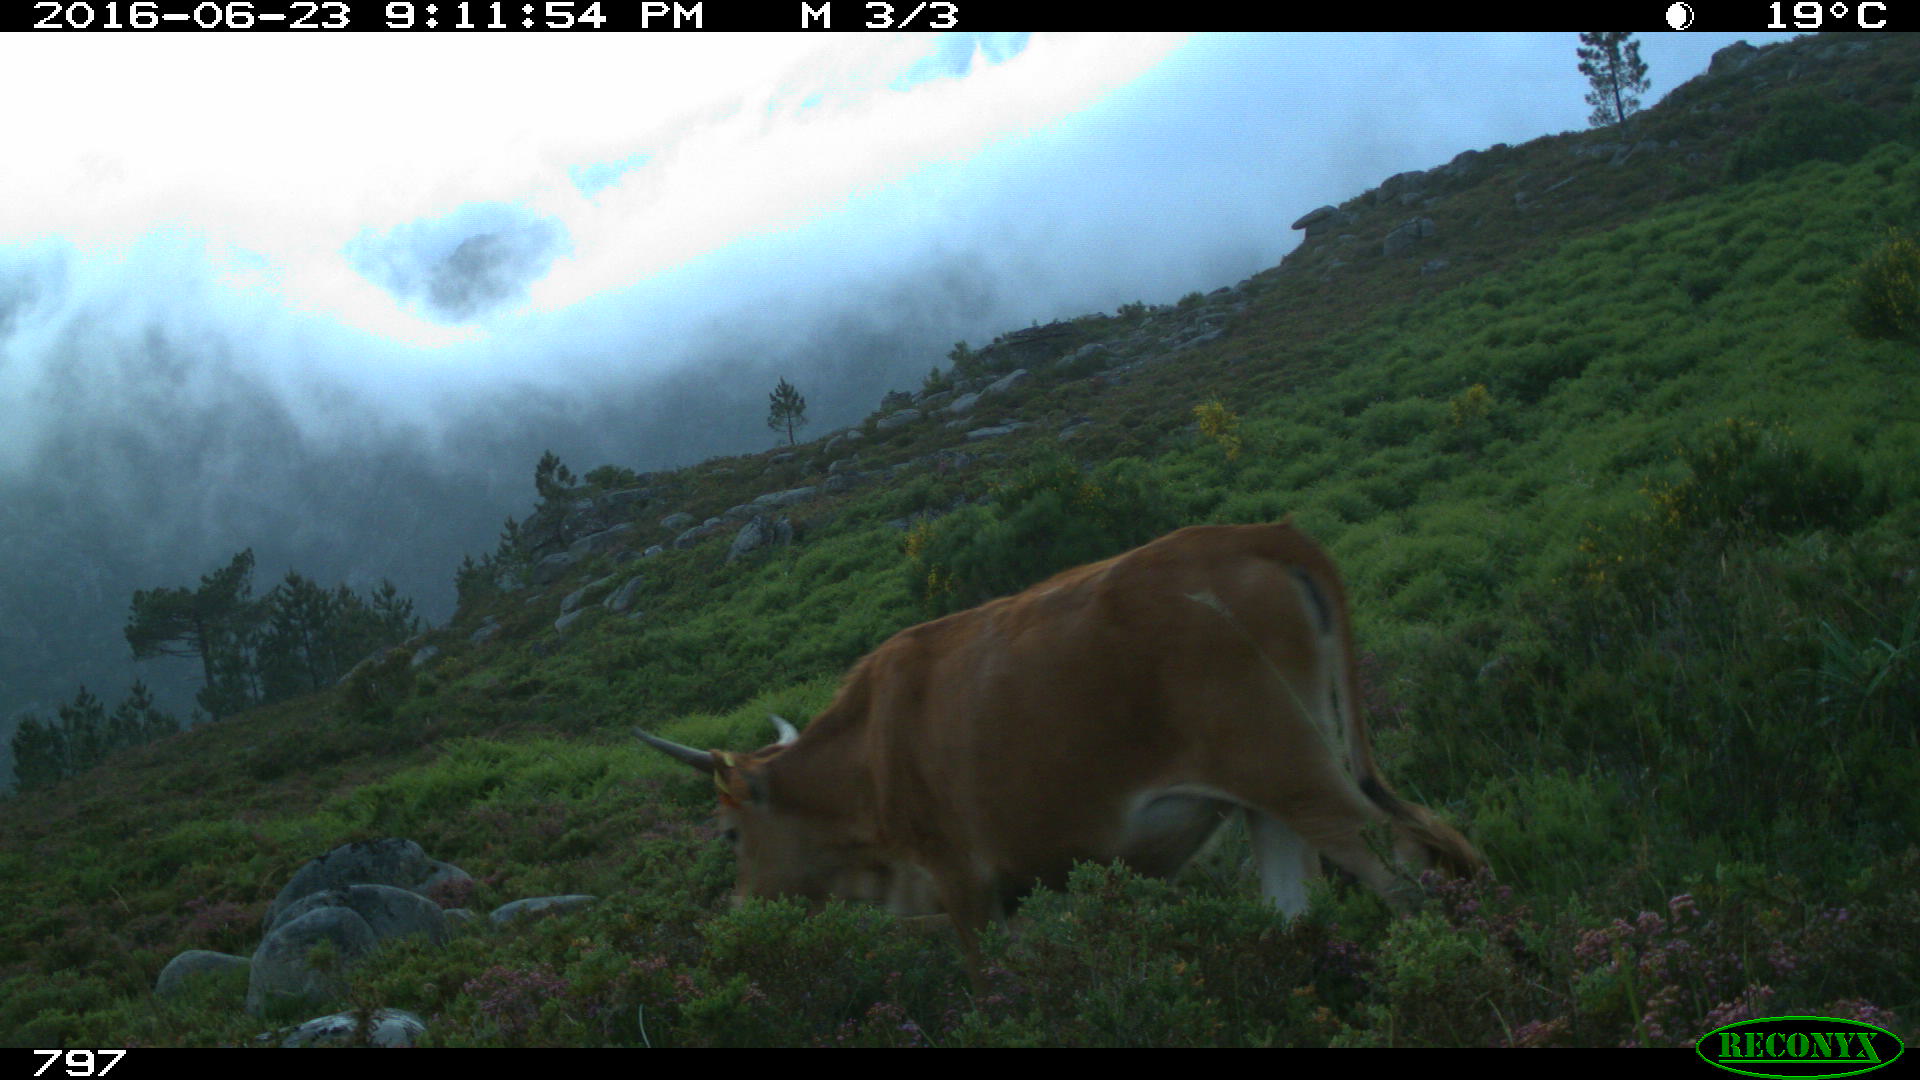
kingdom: Animalia
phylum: Chordata
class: Mammalia
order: Artiodactyla
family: Bovidae
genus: Bos
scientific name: Bos taurus
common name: Domesticated cattle
